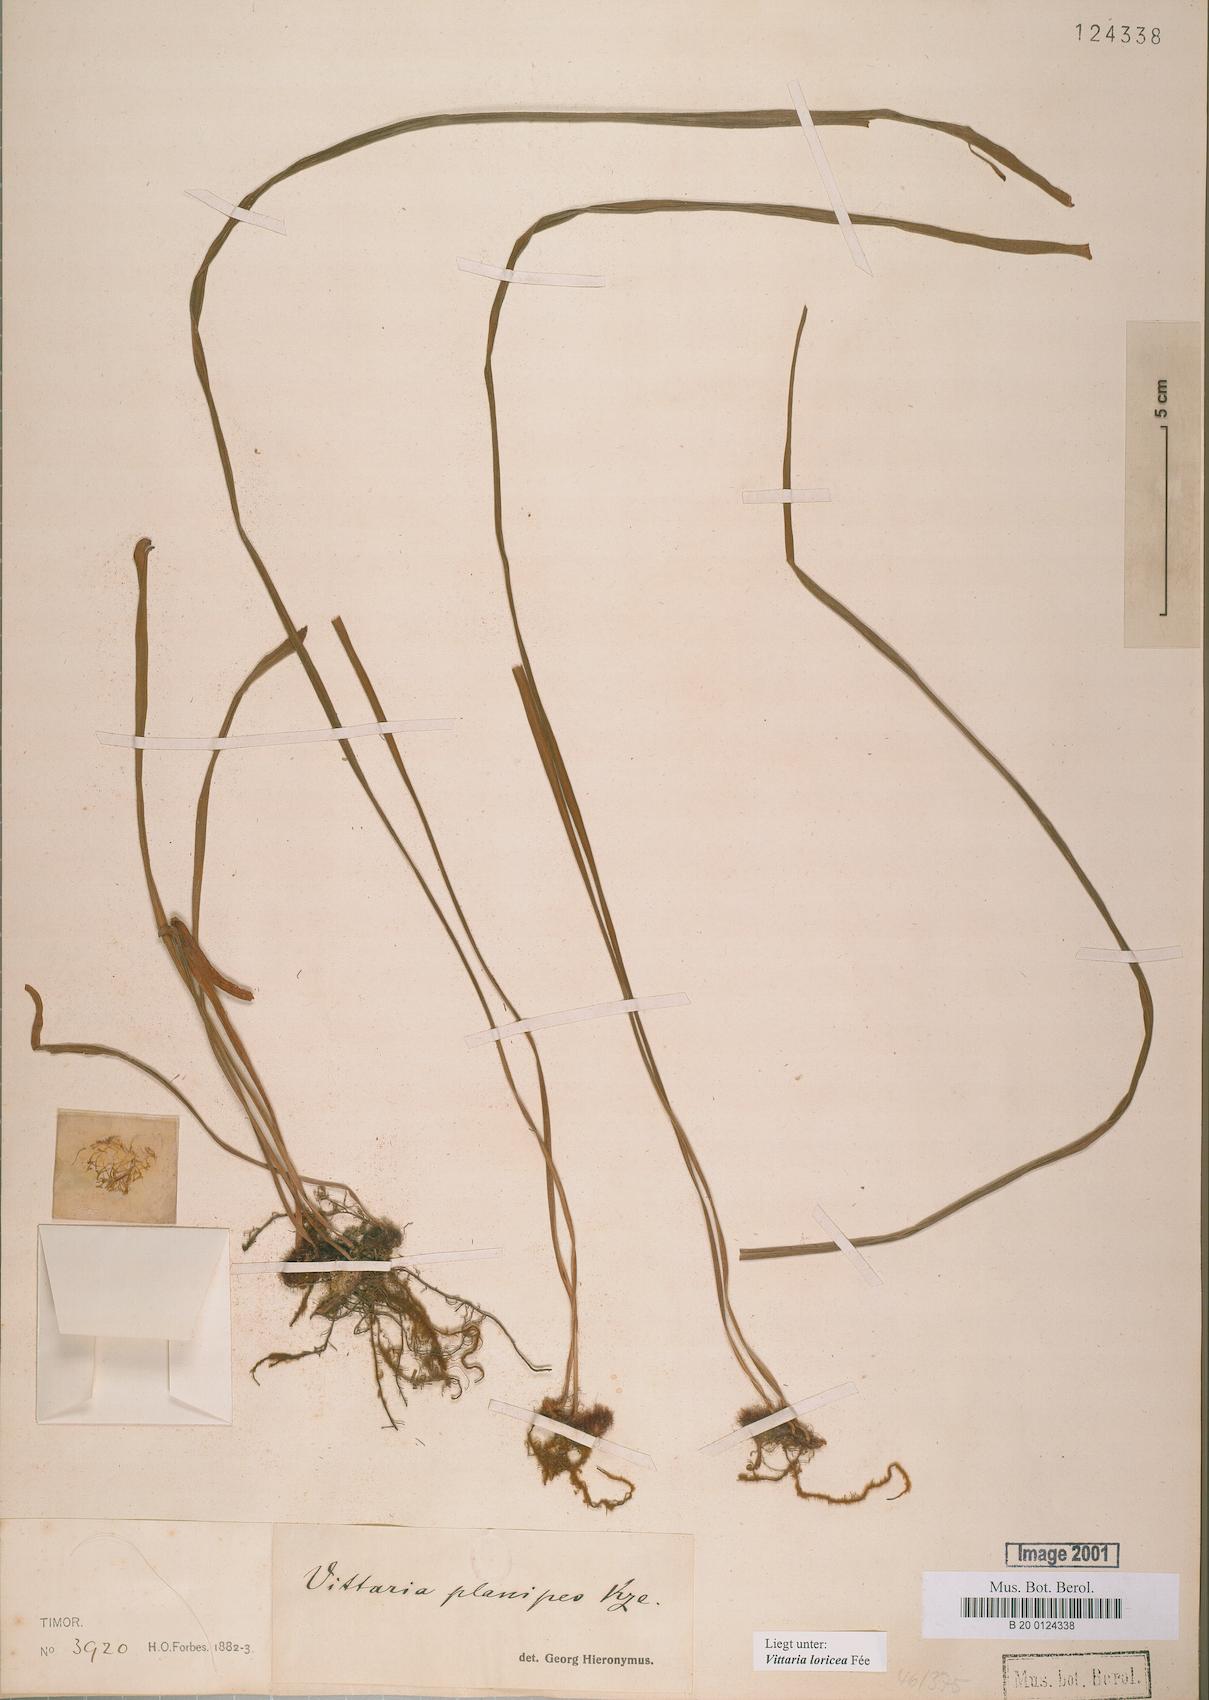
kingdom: Plantae
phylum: Tracheophyta
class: Polypodiopsida
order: Polypodiales
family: Pteridaceae
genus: Haplopteris
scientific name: Haplopteris zosterifolia
